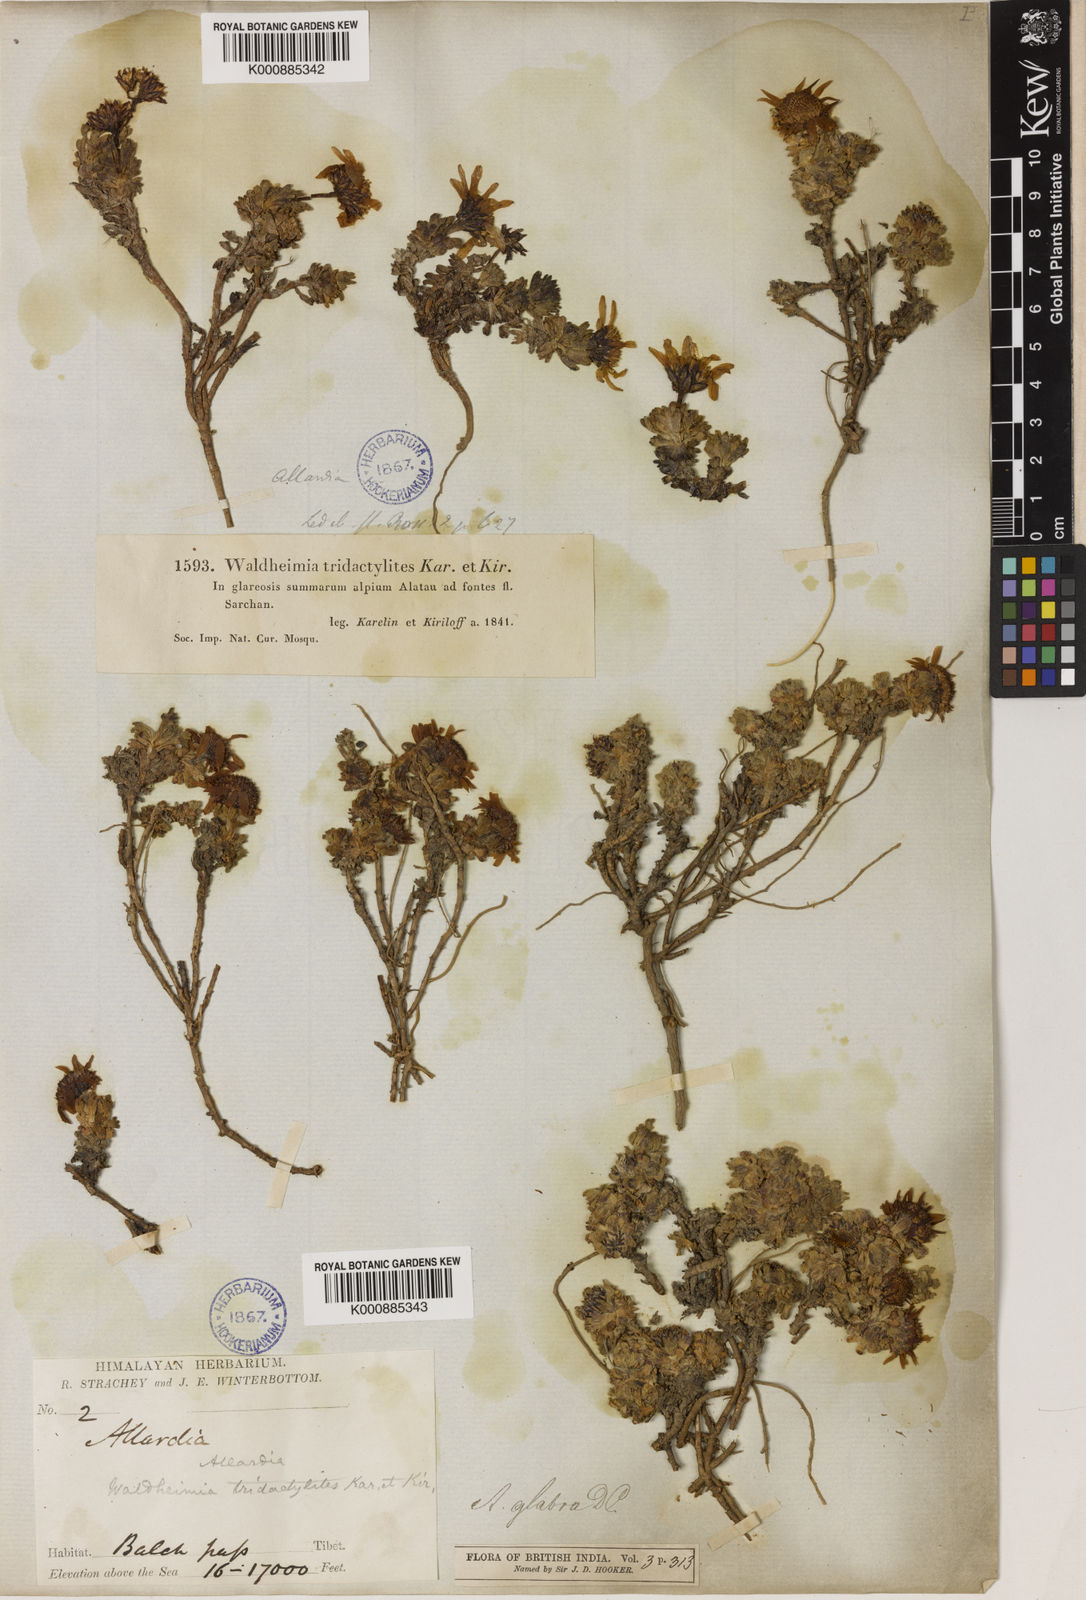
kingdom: Plantae
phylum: Tracheophyta
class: Magnoliopsida
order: Asterales
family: Asteraceae
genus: Allardia
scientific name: Allardia tridactylites
